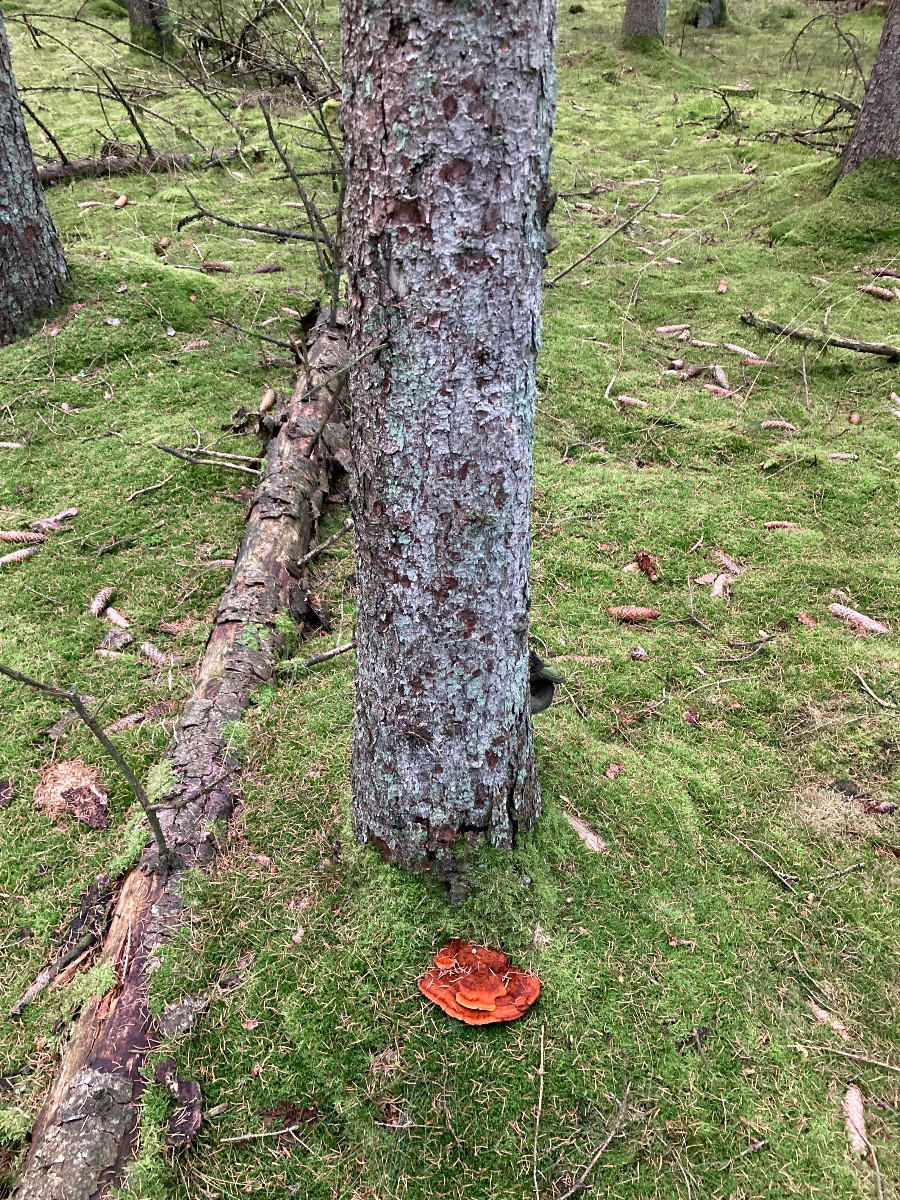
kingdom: Fungi
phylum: Basidiomycota
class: Agaricomycetes
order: Polyporales
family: Pycnoporellaceae
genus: Pycnoporellus
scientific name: Pycnoporellus fulgens
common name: flammeporesvamp
